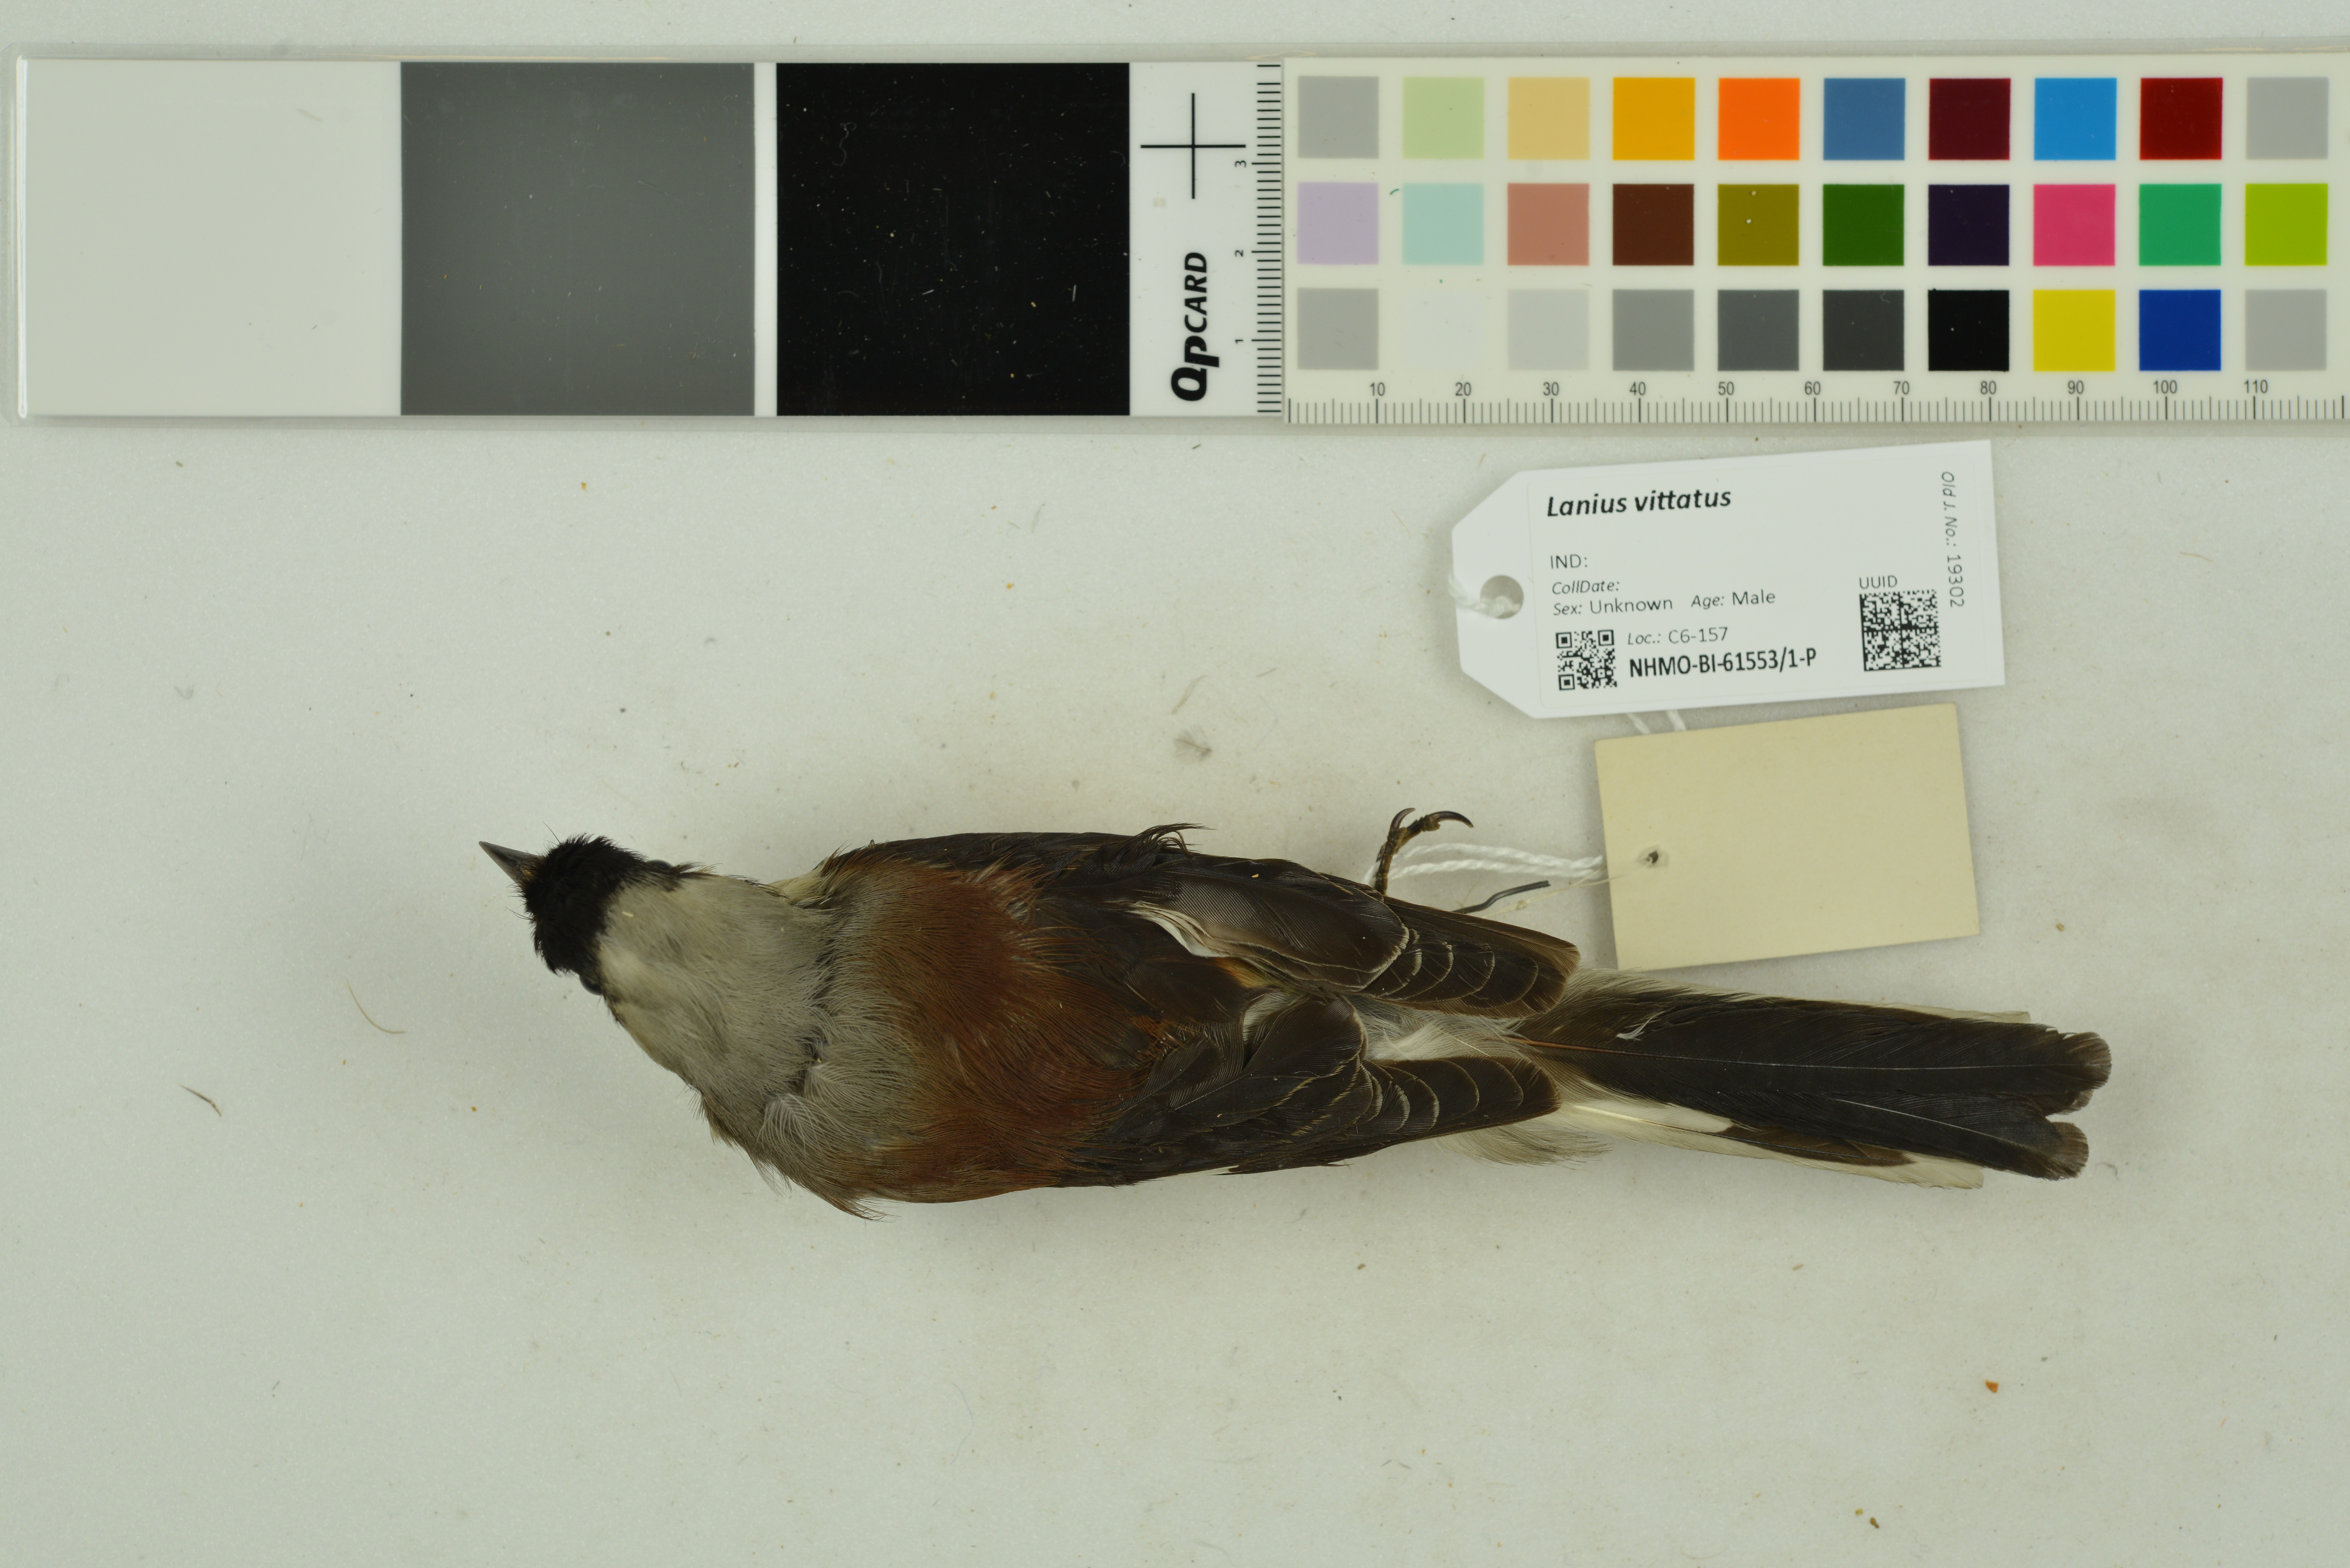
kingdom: Animalia
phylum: Chordata
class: Aves
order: Passeriformes
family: Laniidae
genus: Lanius
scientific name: Lanius vittatus
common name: Bay-backed shrike
